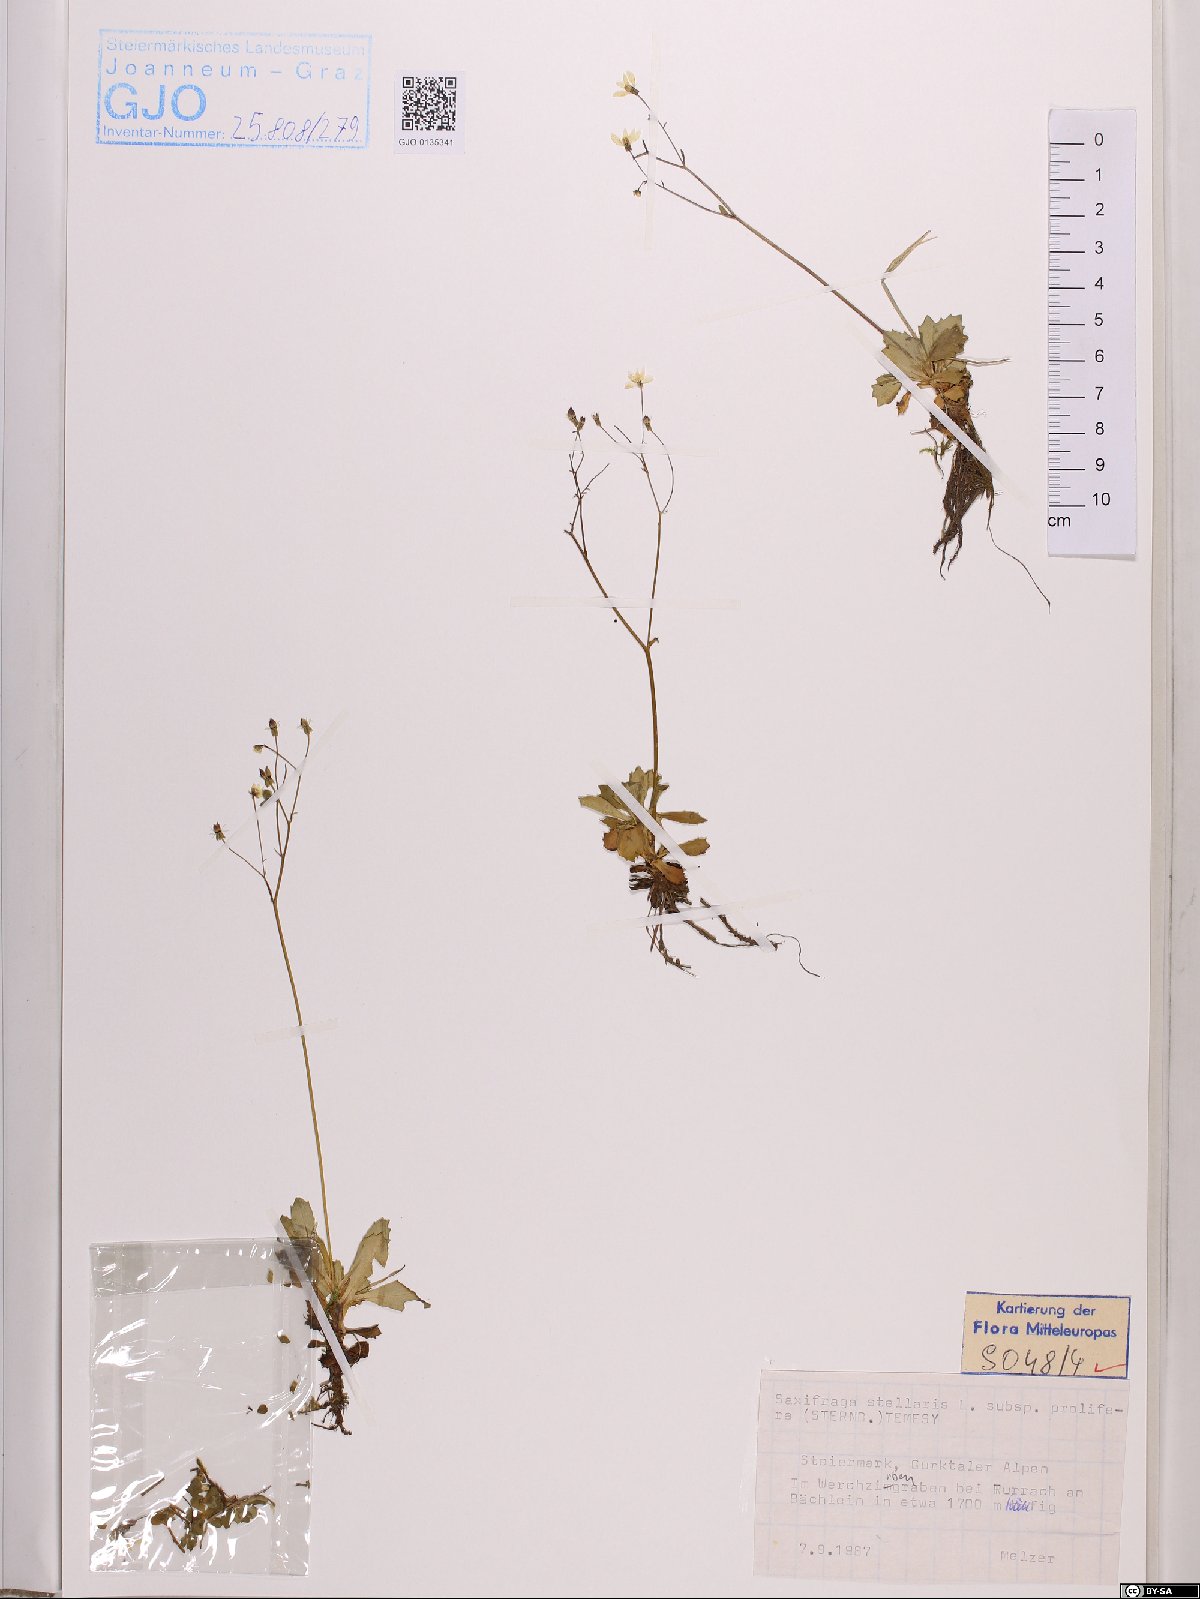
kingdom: Plantae
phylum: Tracheophyta
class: Magnoliopsida
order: Saxifragales
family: Saxifragaceae
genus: Micranthes
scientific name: Micranthes stellaris
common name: Starry saxifrage
